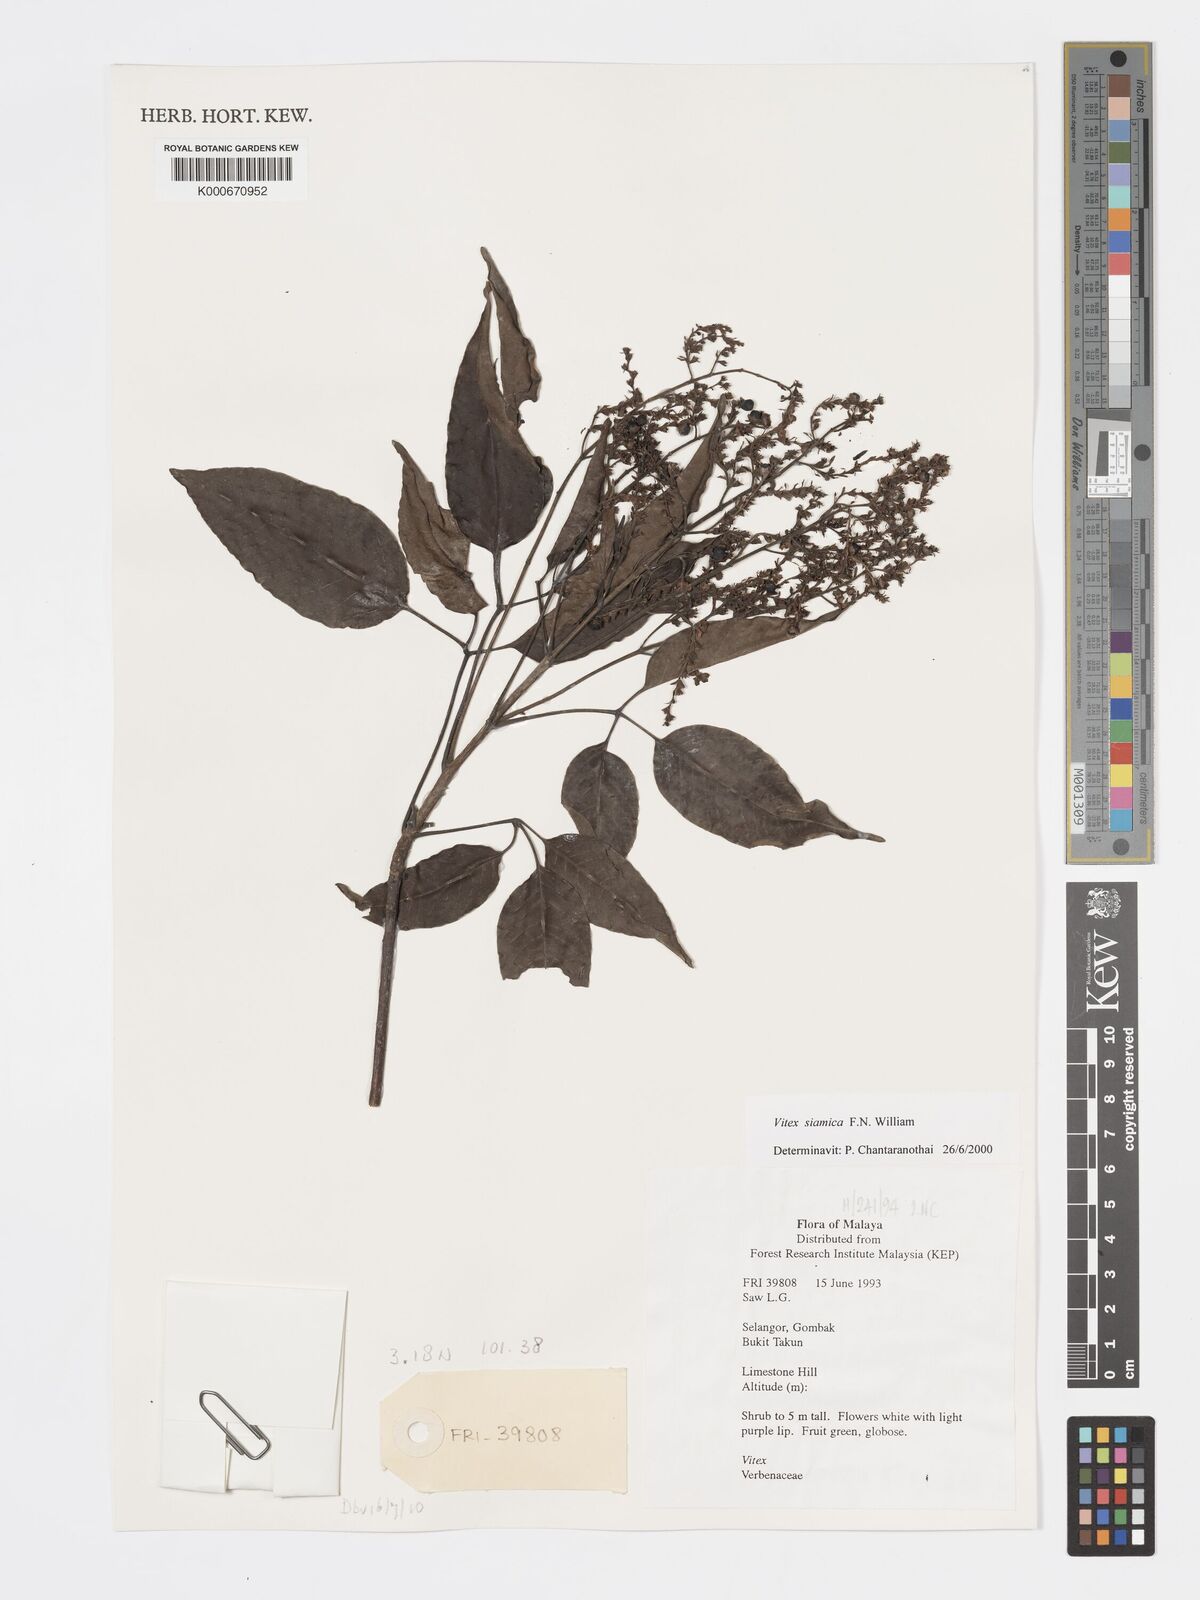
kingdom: Plantae
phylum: Tracheophyta
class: Magnoliopsida
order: Lamiales
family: Lamiaceae
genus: Vitex
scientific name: Vitex siamica
